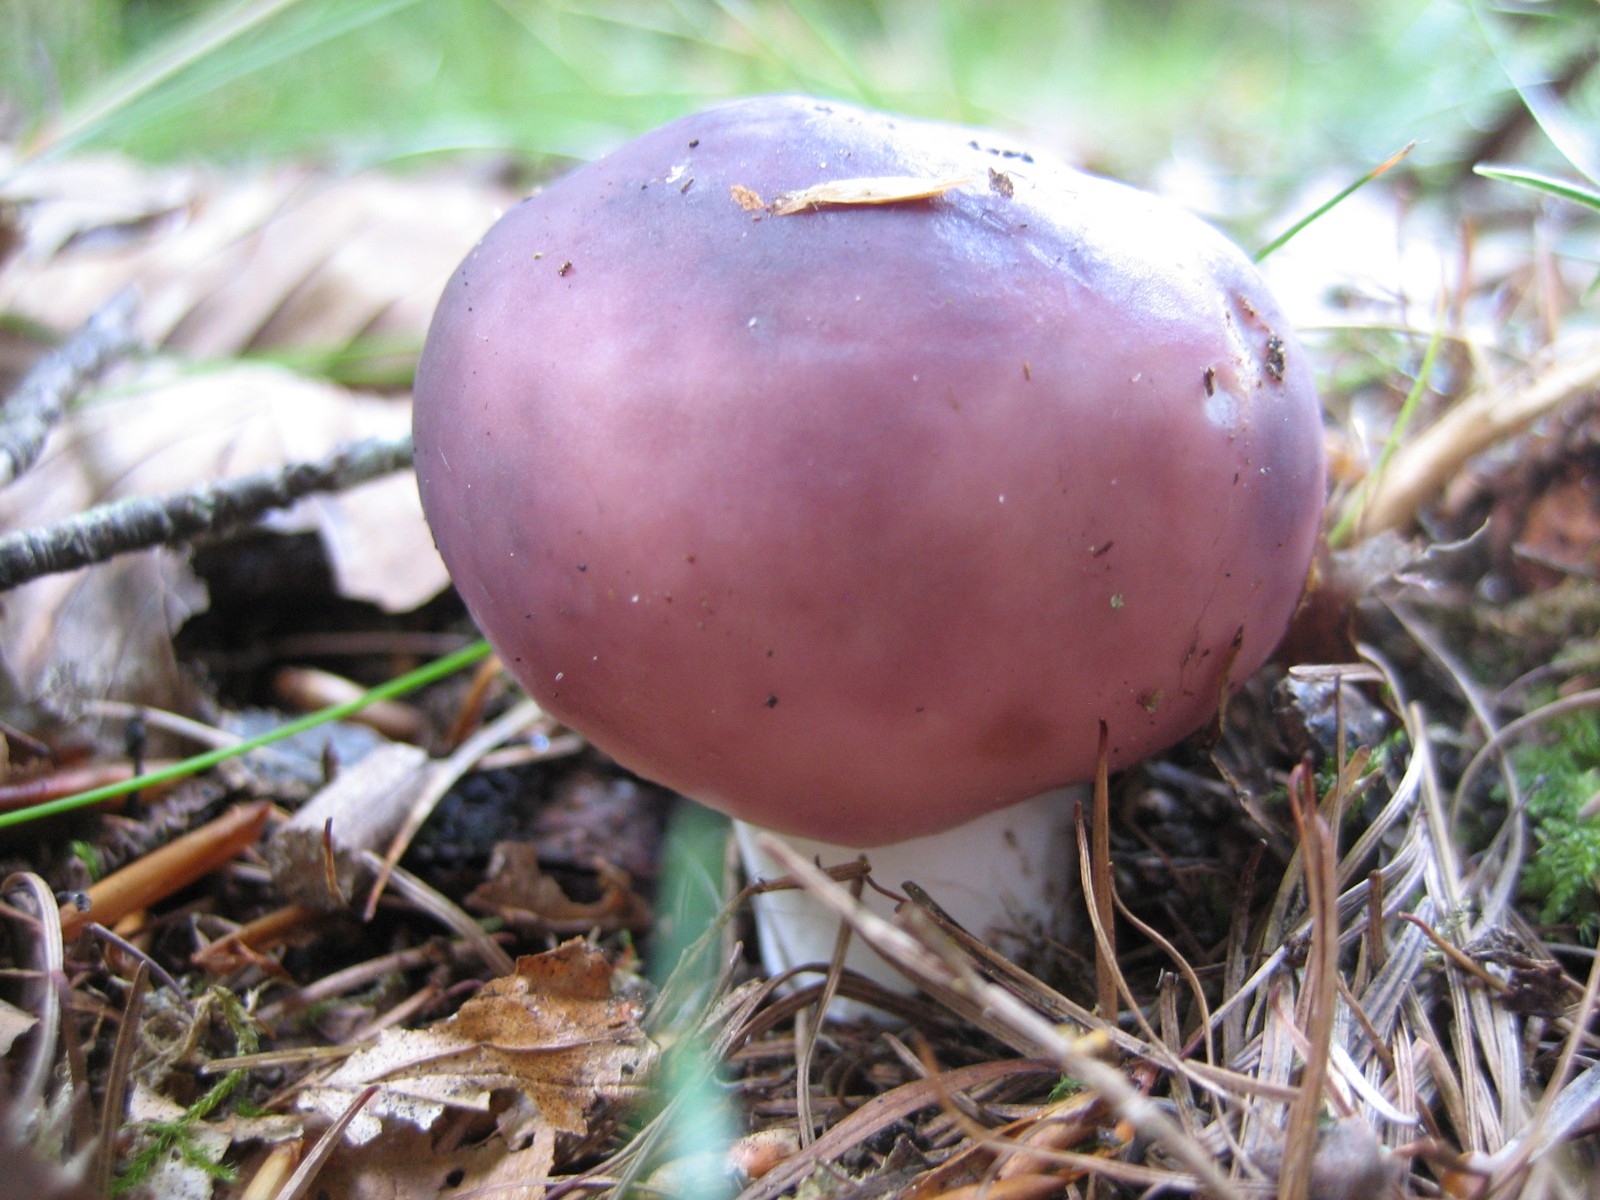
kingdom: Fungi
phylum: Basidiomycota
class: Agaricomycetes
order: Russulales
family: Russulaceae
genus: Russula
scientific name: Russula
